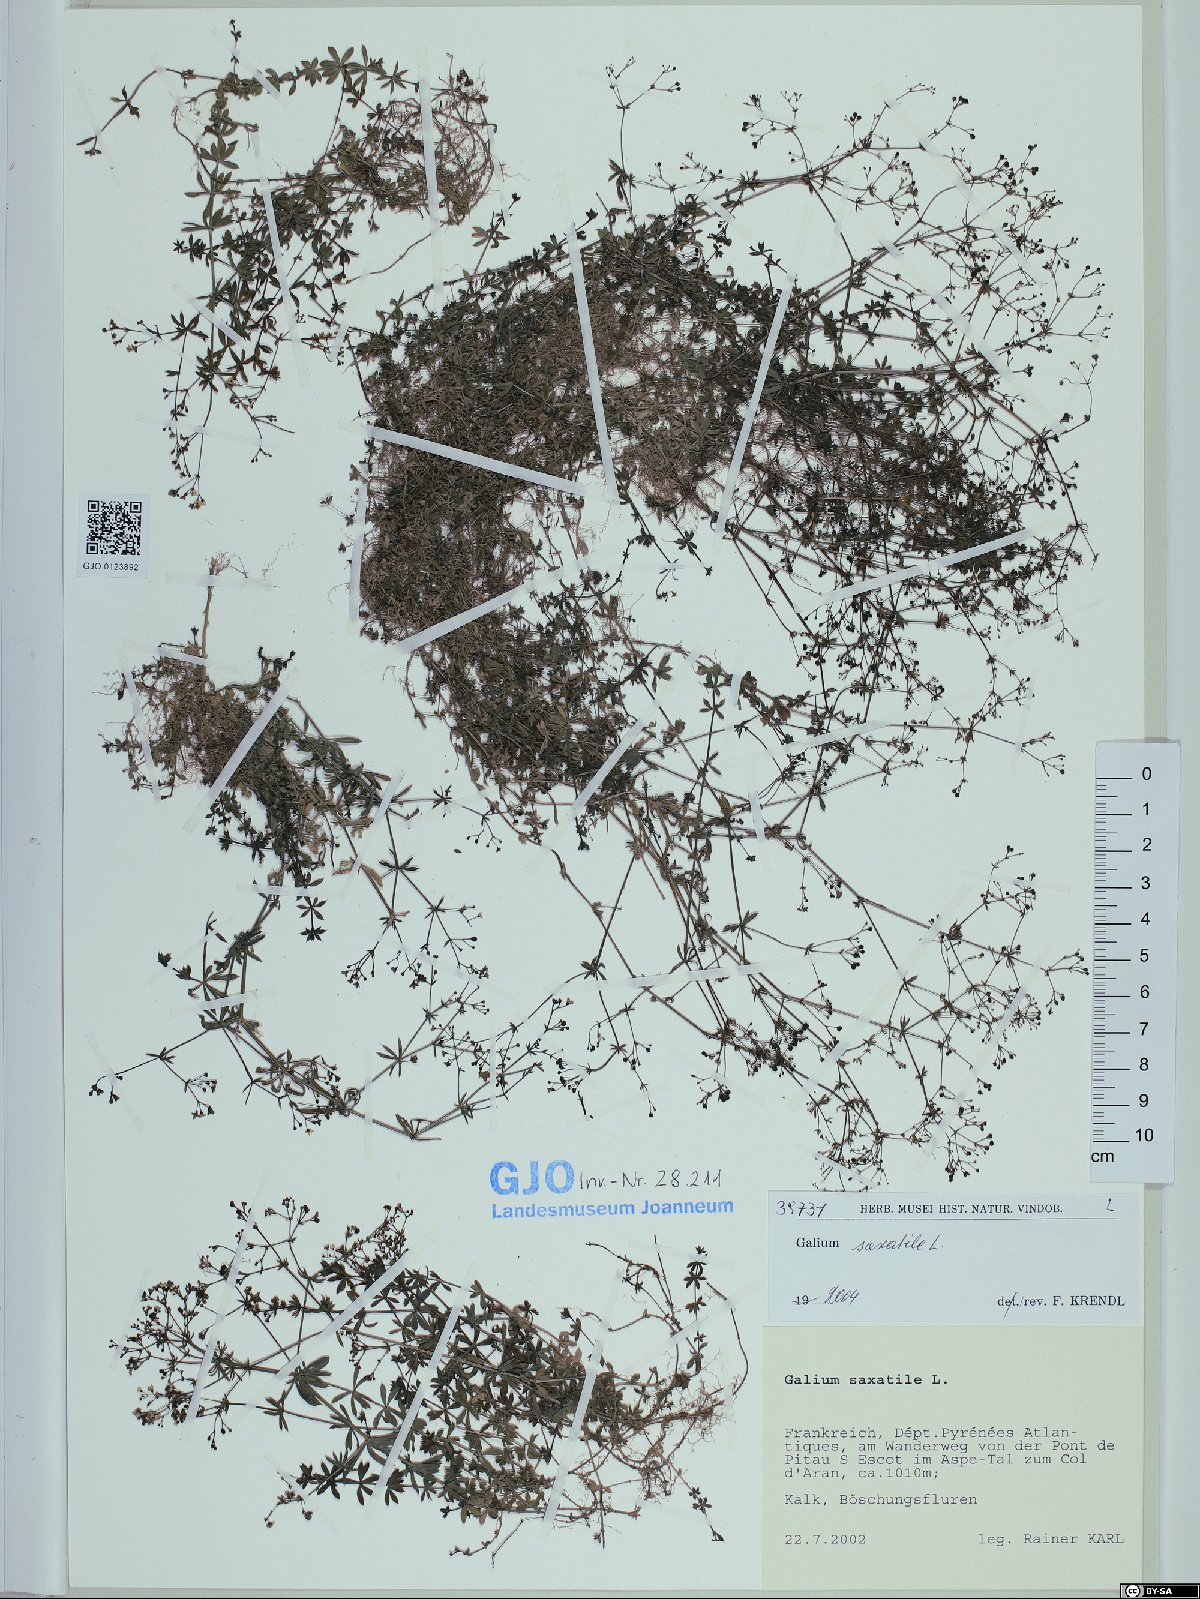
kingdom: Plantae
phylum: Tracheophyta
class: Magnoliopsida
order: Gentianales
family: Rubiaceae
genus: Galium
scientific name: Galium saxatile
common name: Heath bedstraw
